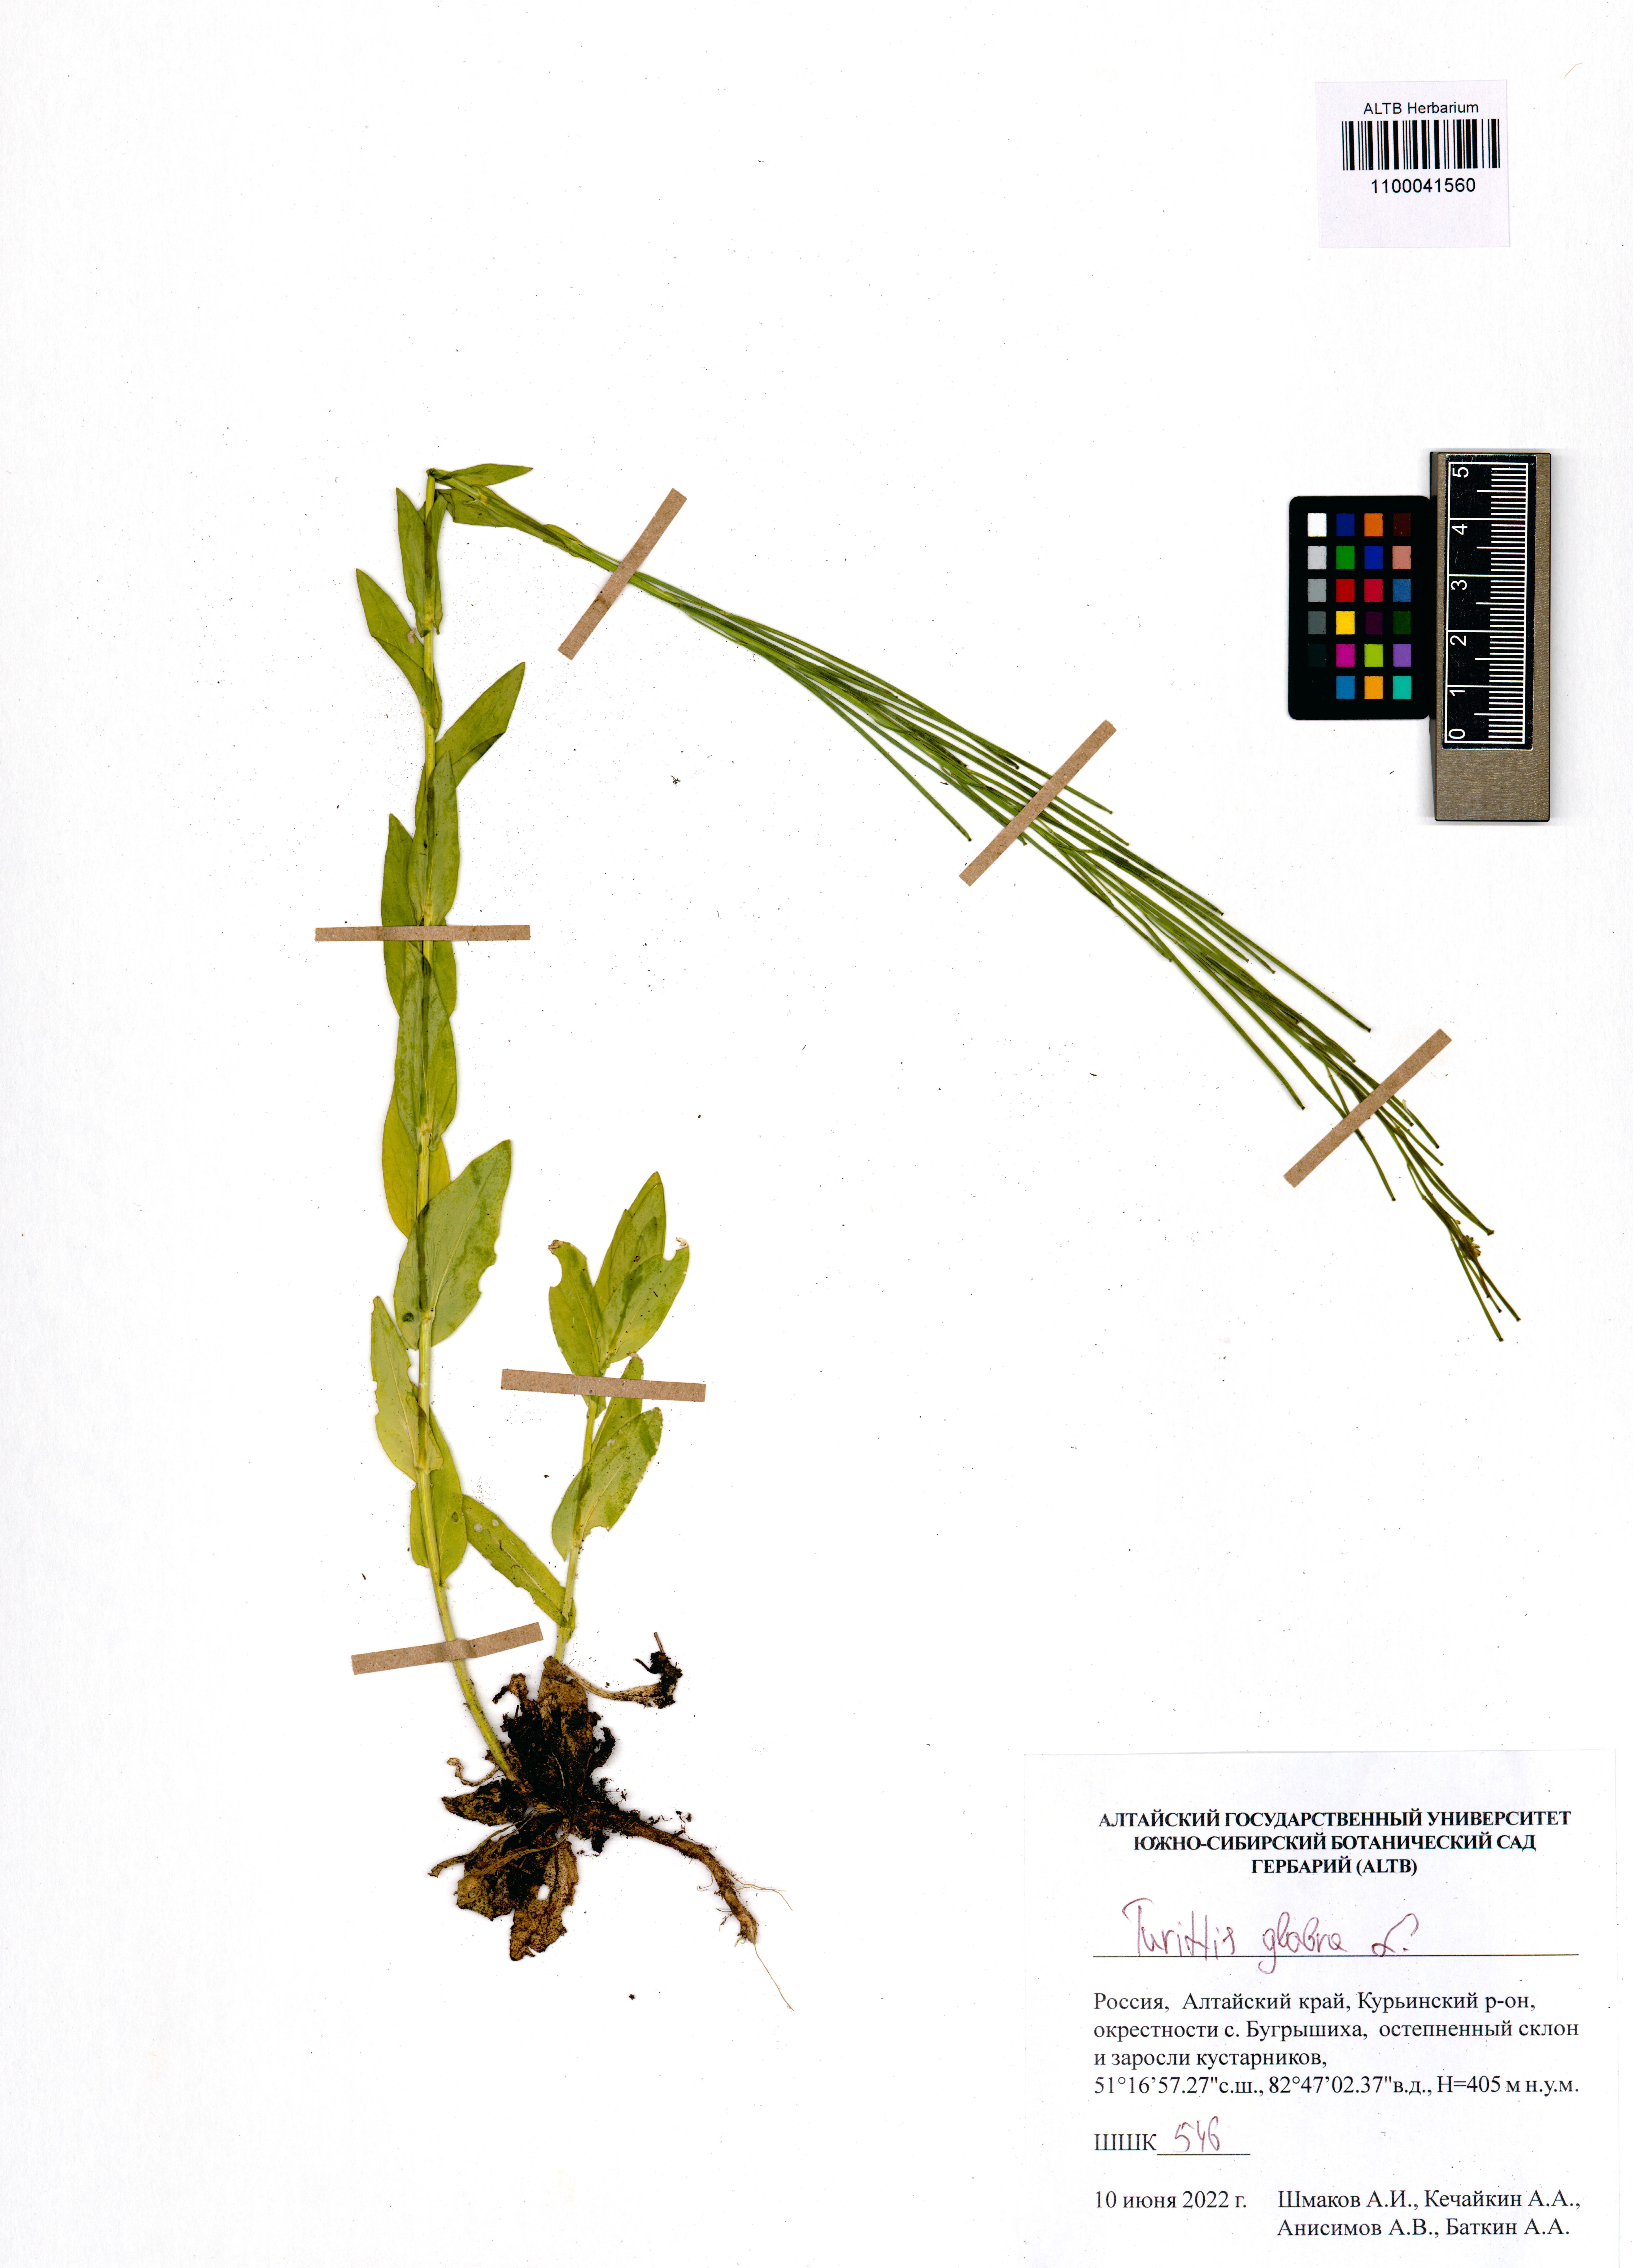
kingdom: Plantae
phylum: Tracheophyta
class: Magnoliopsida
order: Brassicales
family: Brassicaceae
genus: Turritis
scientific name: Turritis glabra
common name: Tower rockcress
